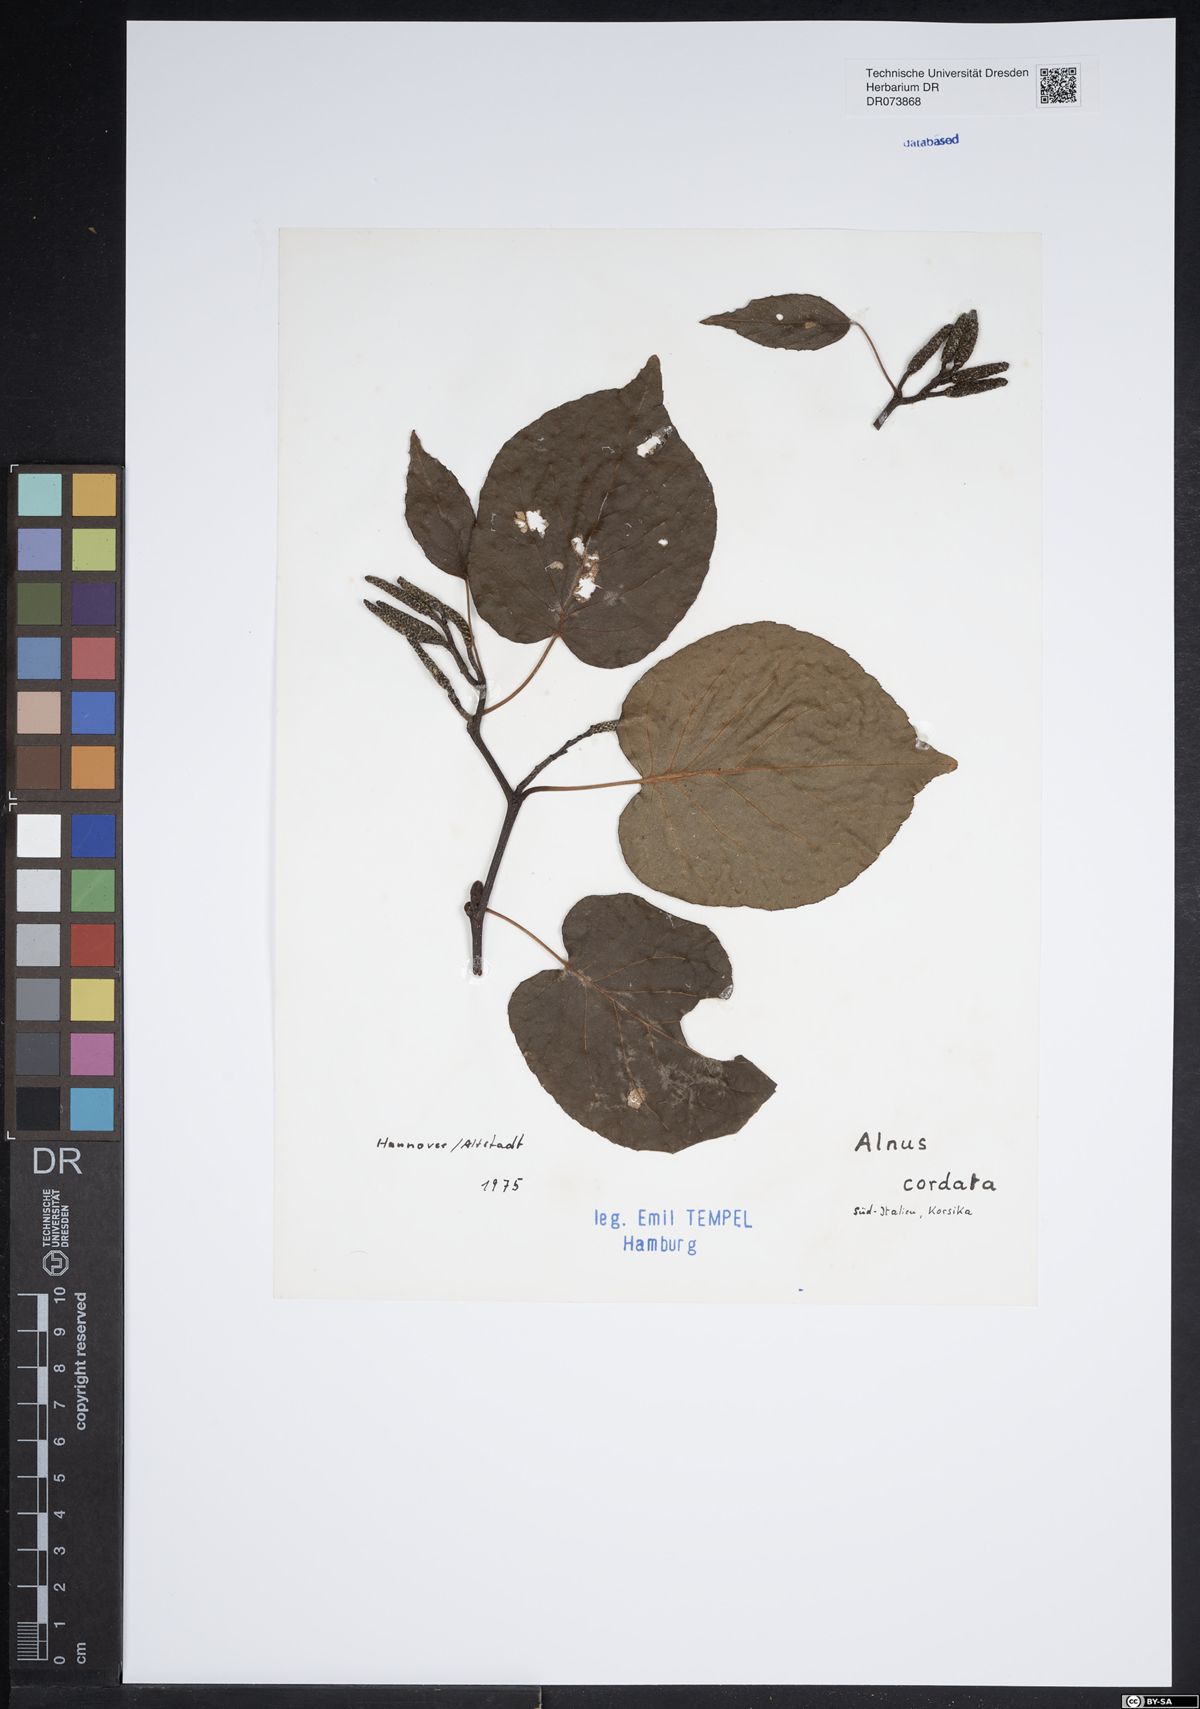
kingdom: Plantae
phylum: Tracheophyta
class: Magnoliopsida
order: Fagales
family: Betulaceae
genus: Alnus
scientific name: Alnus cordata
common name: Italian alder
